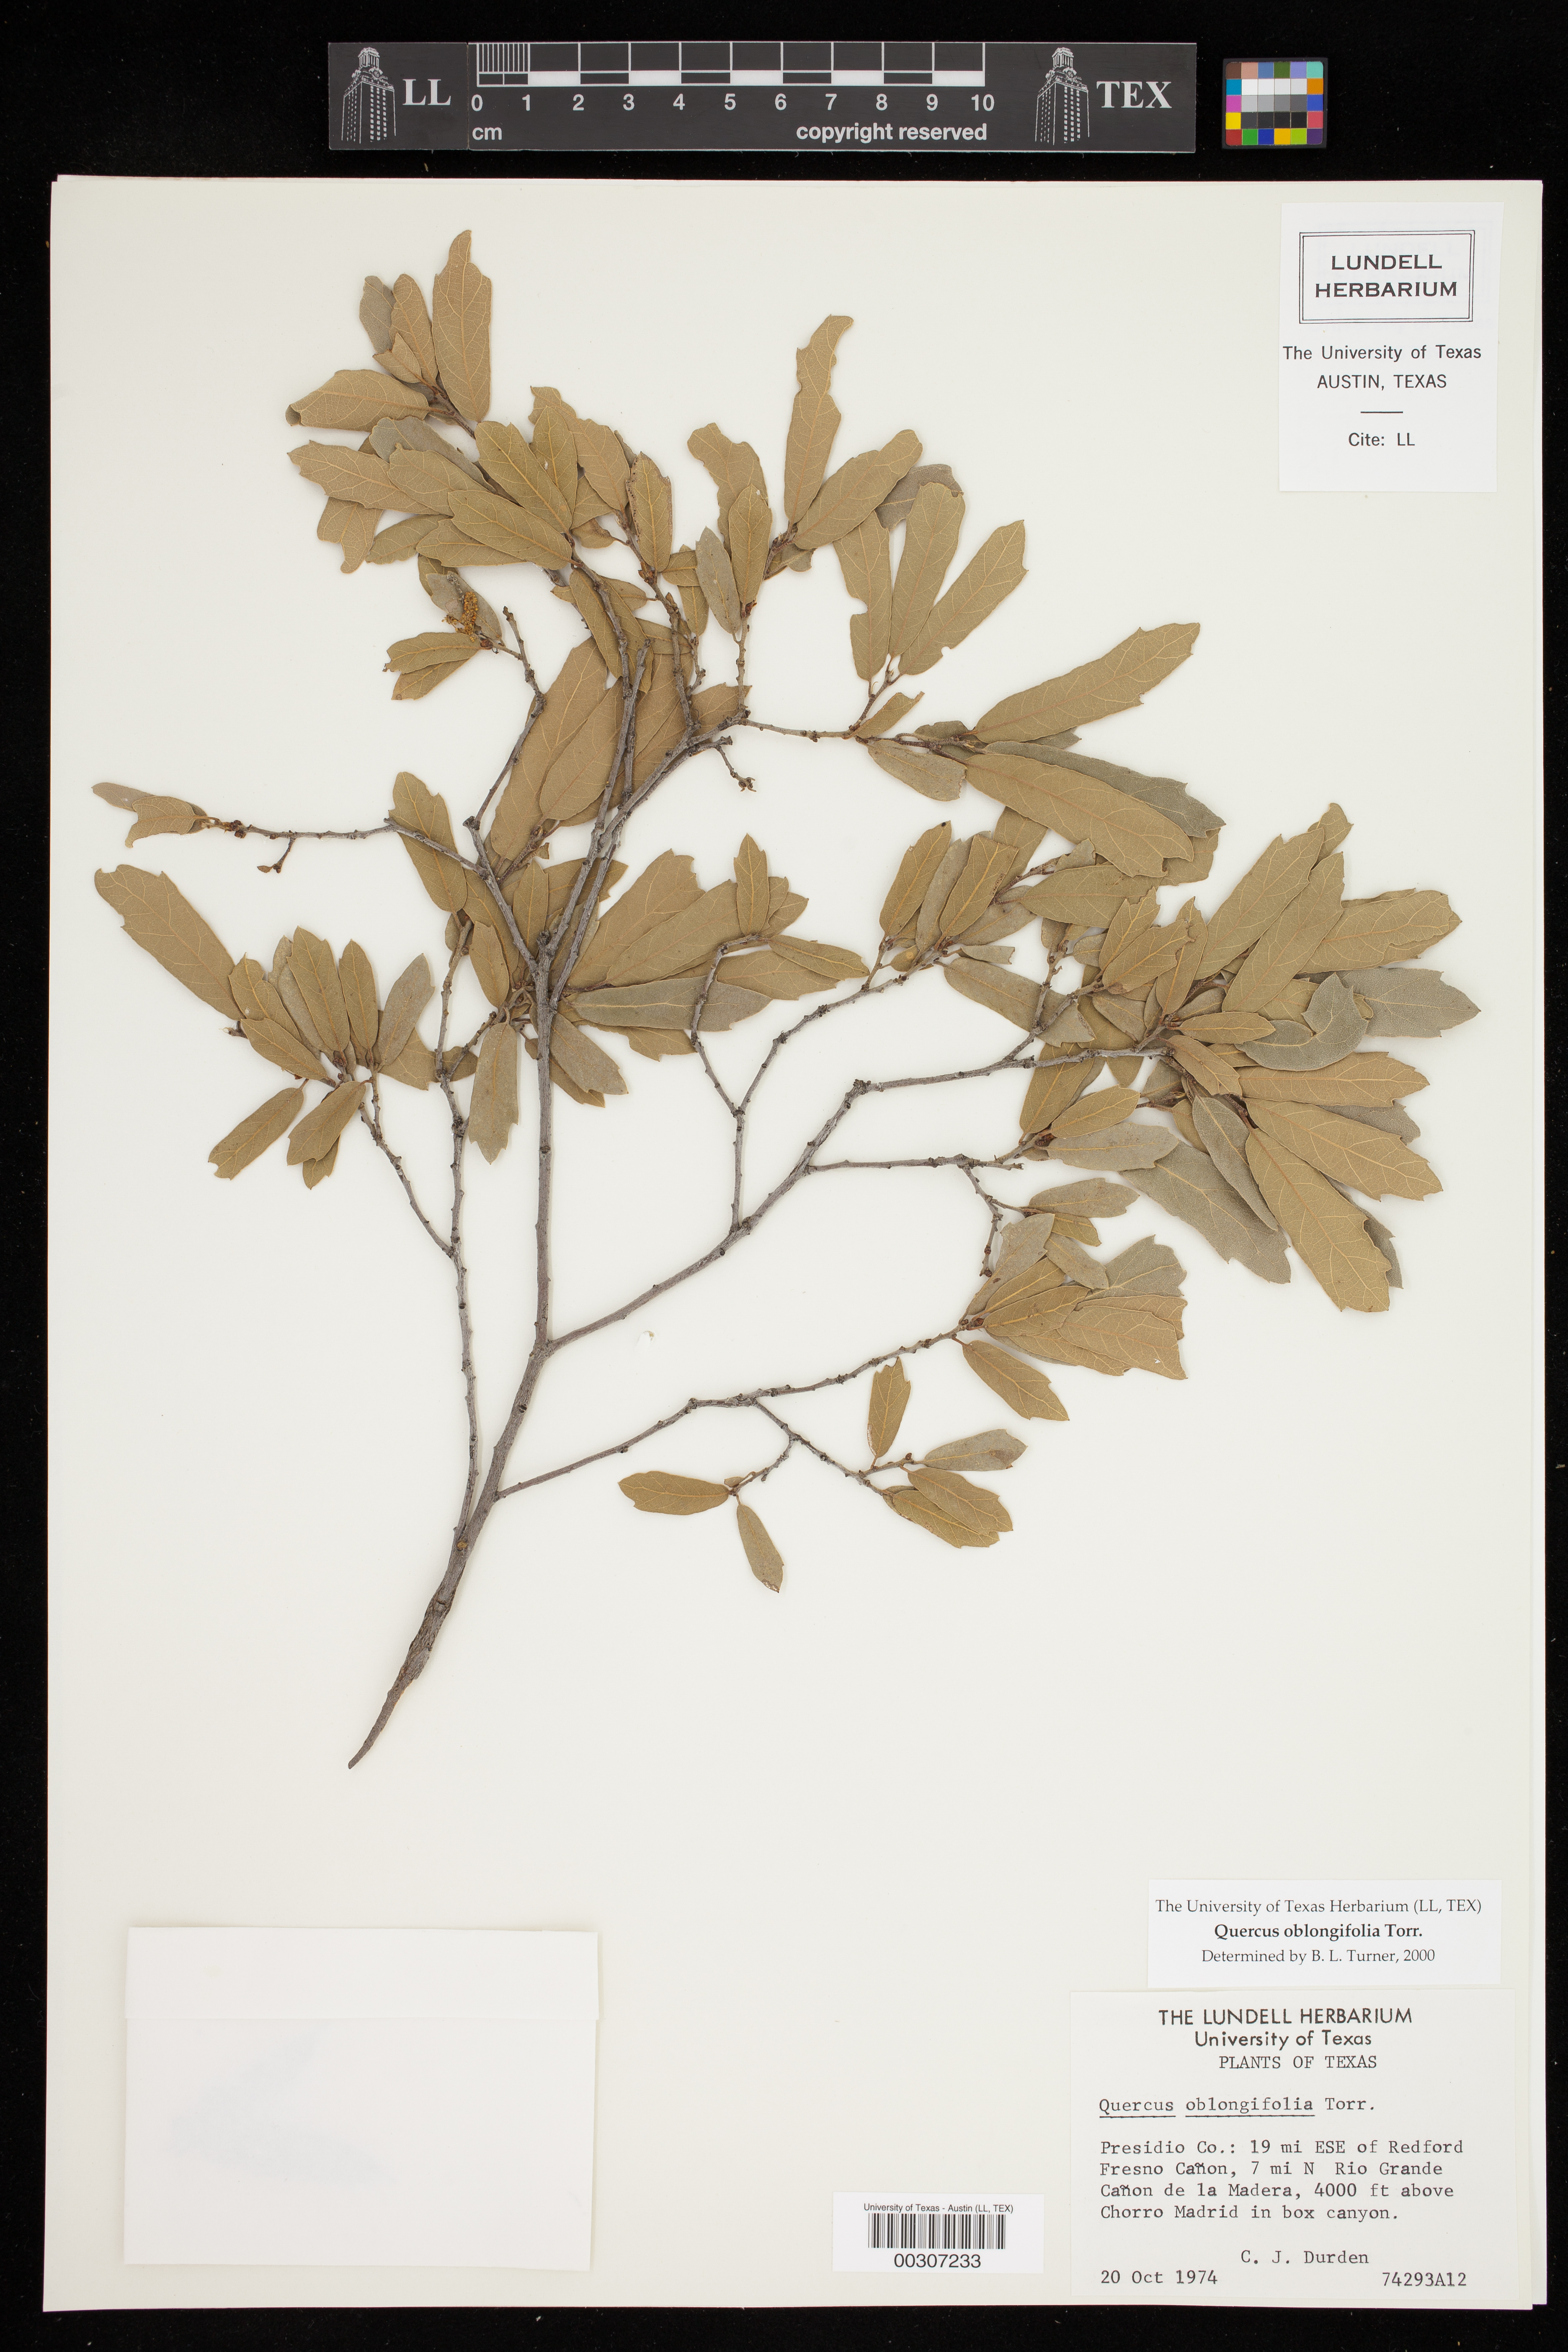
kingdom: Plantae
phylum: Tracheophyta
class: Magnoliopsida
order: Fagales
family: Fagaceae
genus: Quercus
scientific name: Quercus oblongifolia
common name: Mexican blue oak
